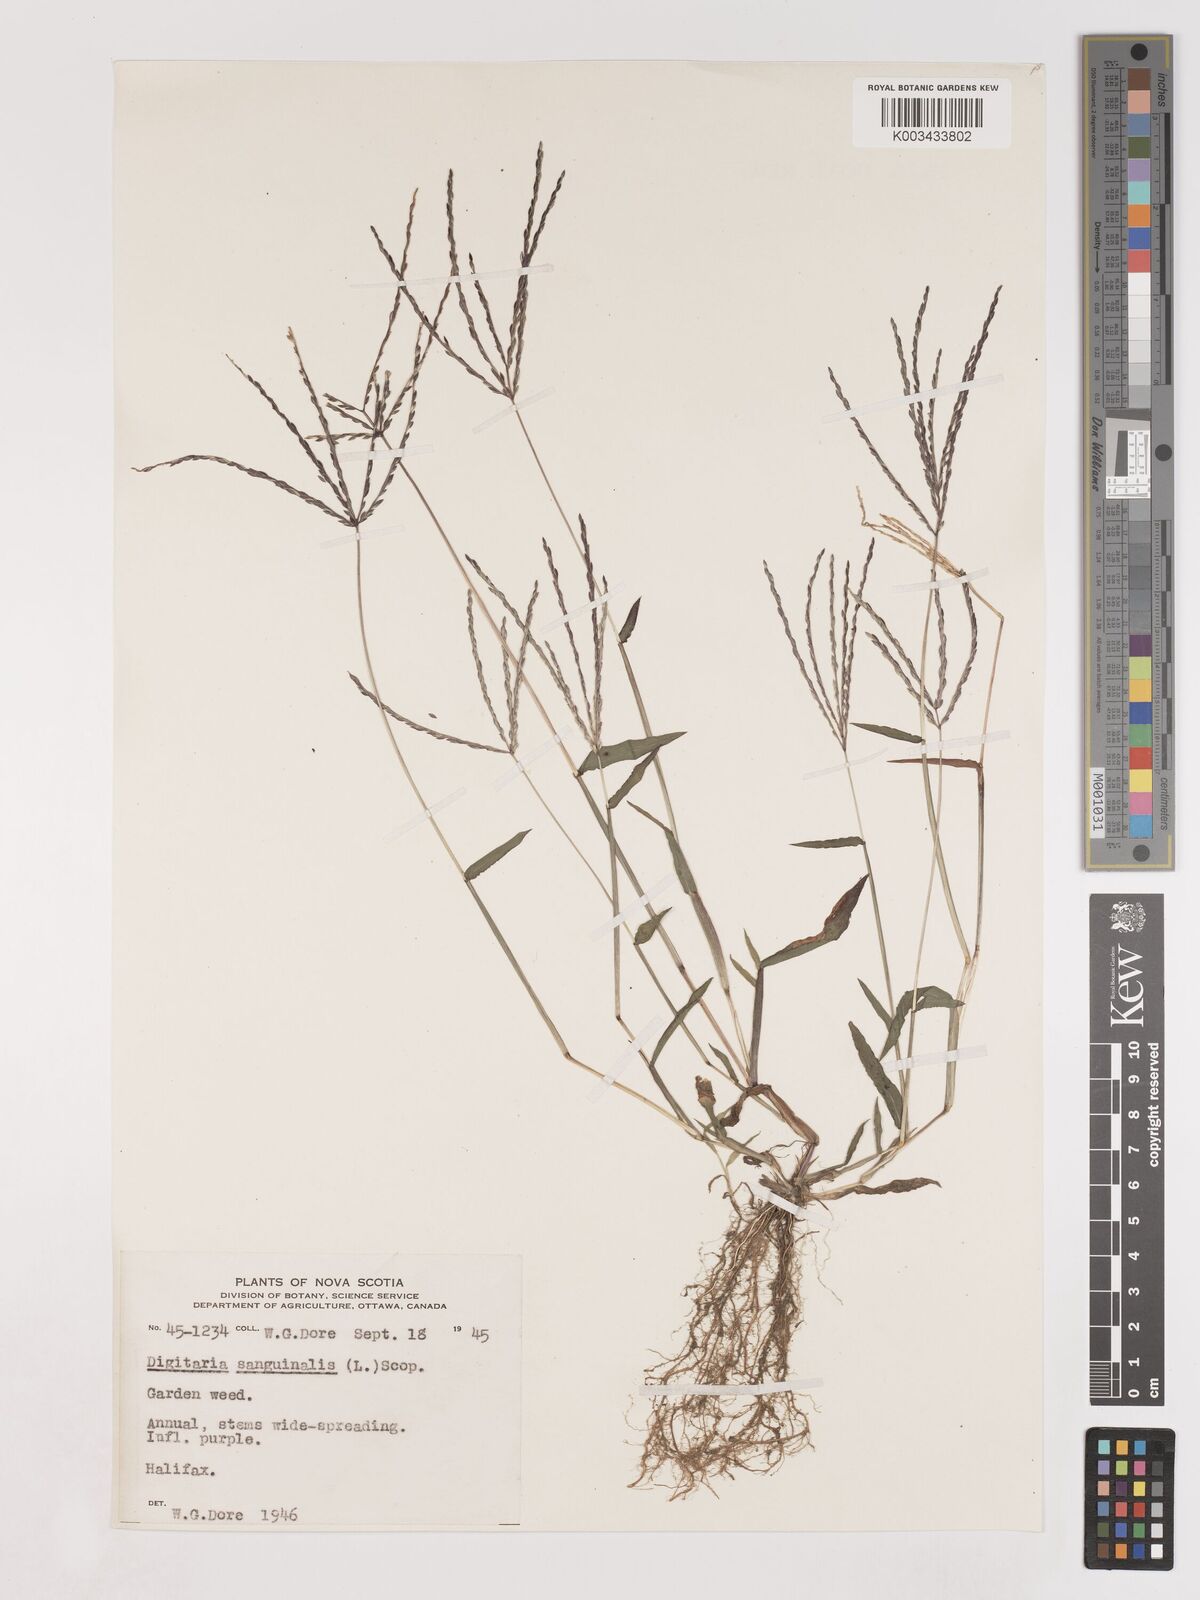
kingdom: Plantae
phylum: Tracheophyta
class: Liliopsida
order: Poales
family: Poaceae
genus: Digitaria
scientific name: Digitaria sanguinalis
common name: Hairy crabgrass
